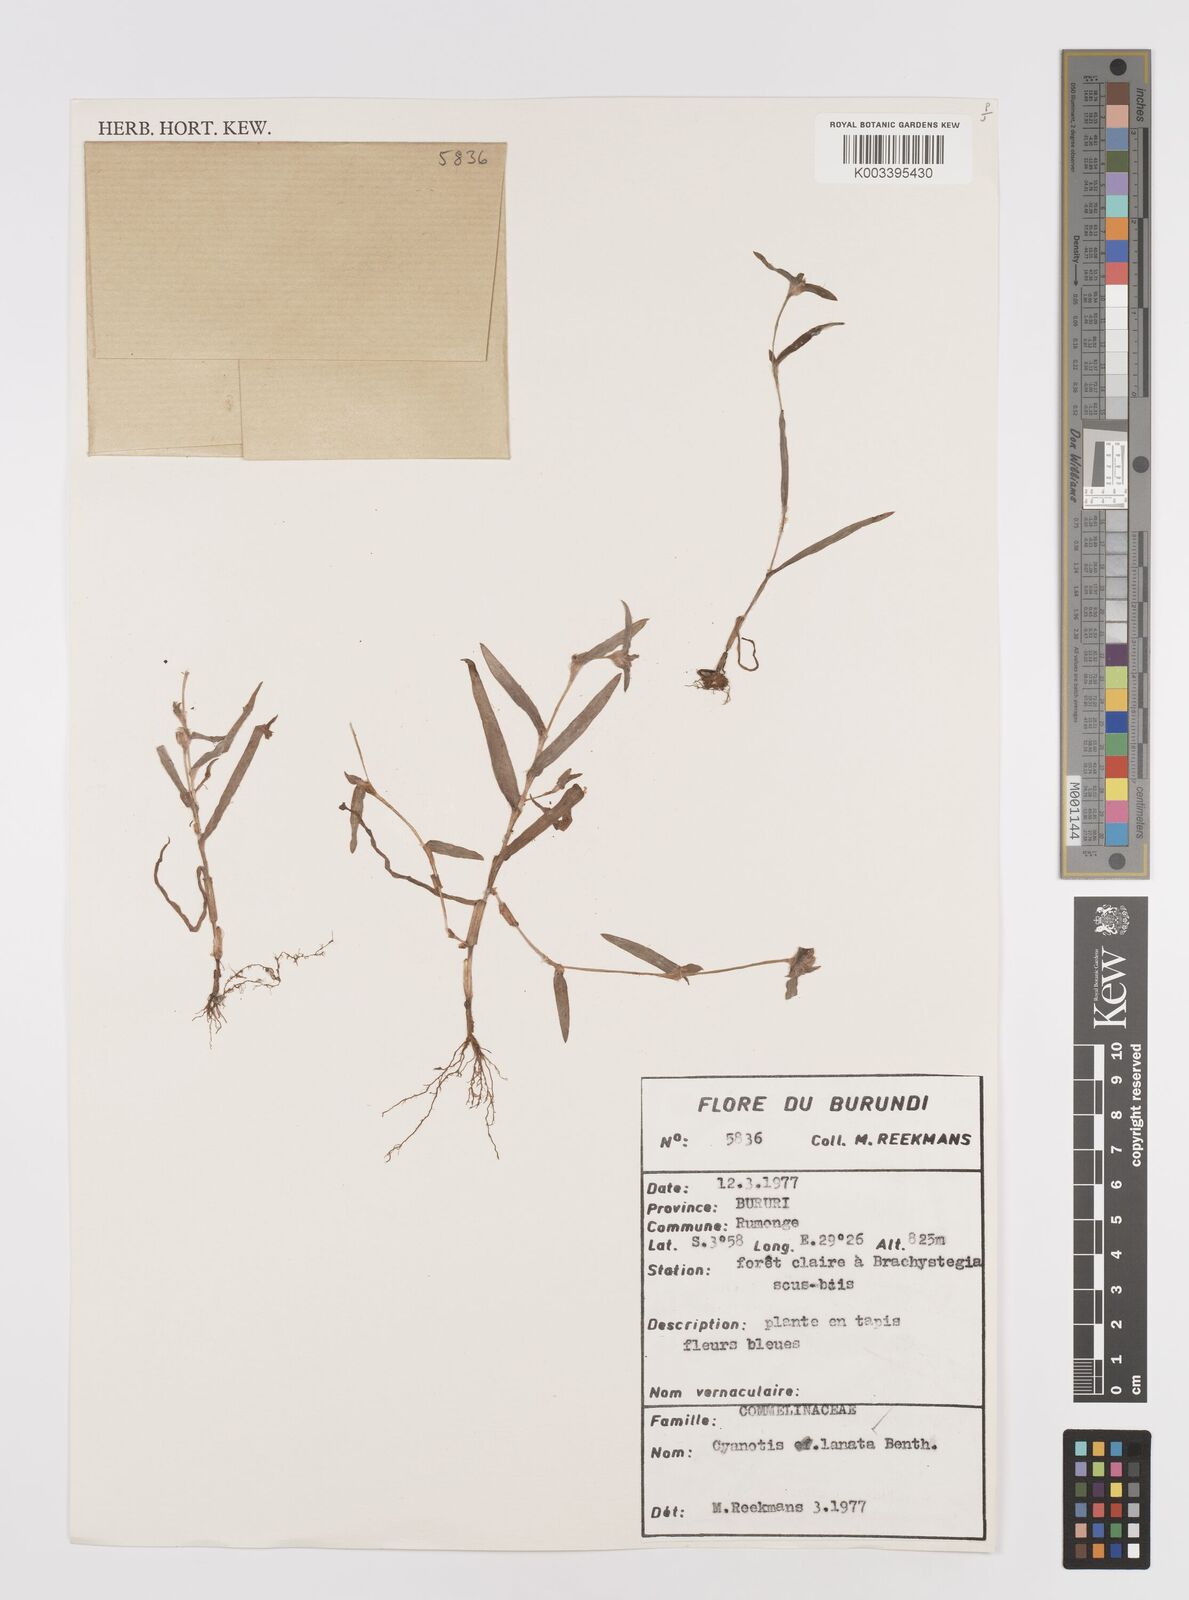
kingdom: Plantae
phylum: Tracheophyta
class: Liliopsida
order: Commelinales
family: Commelinaceae
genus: Cyanotis
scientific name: Cyanotis lanata
